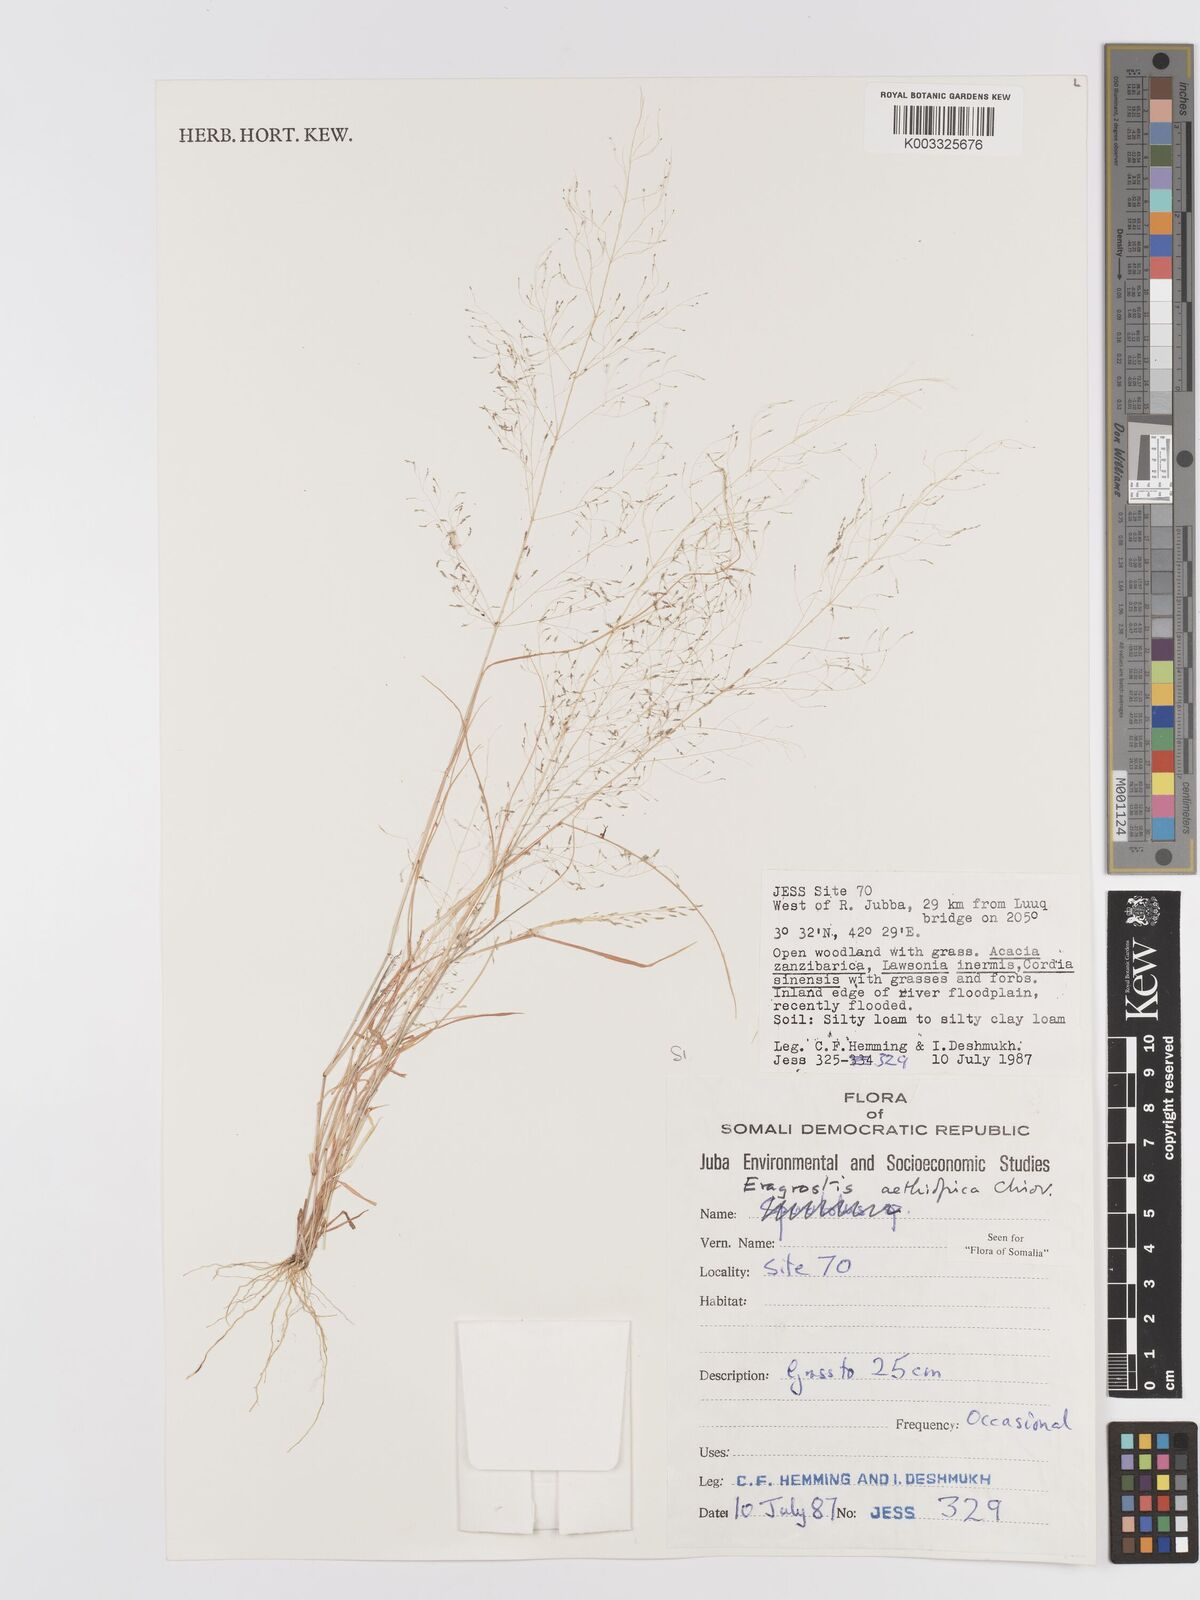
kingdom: Plantae
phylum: Tracheophyta
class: Liliopsida
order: Poales
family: Poaceae
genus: Eragrostis
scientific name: Eragrostis aethiopica
